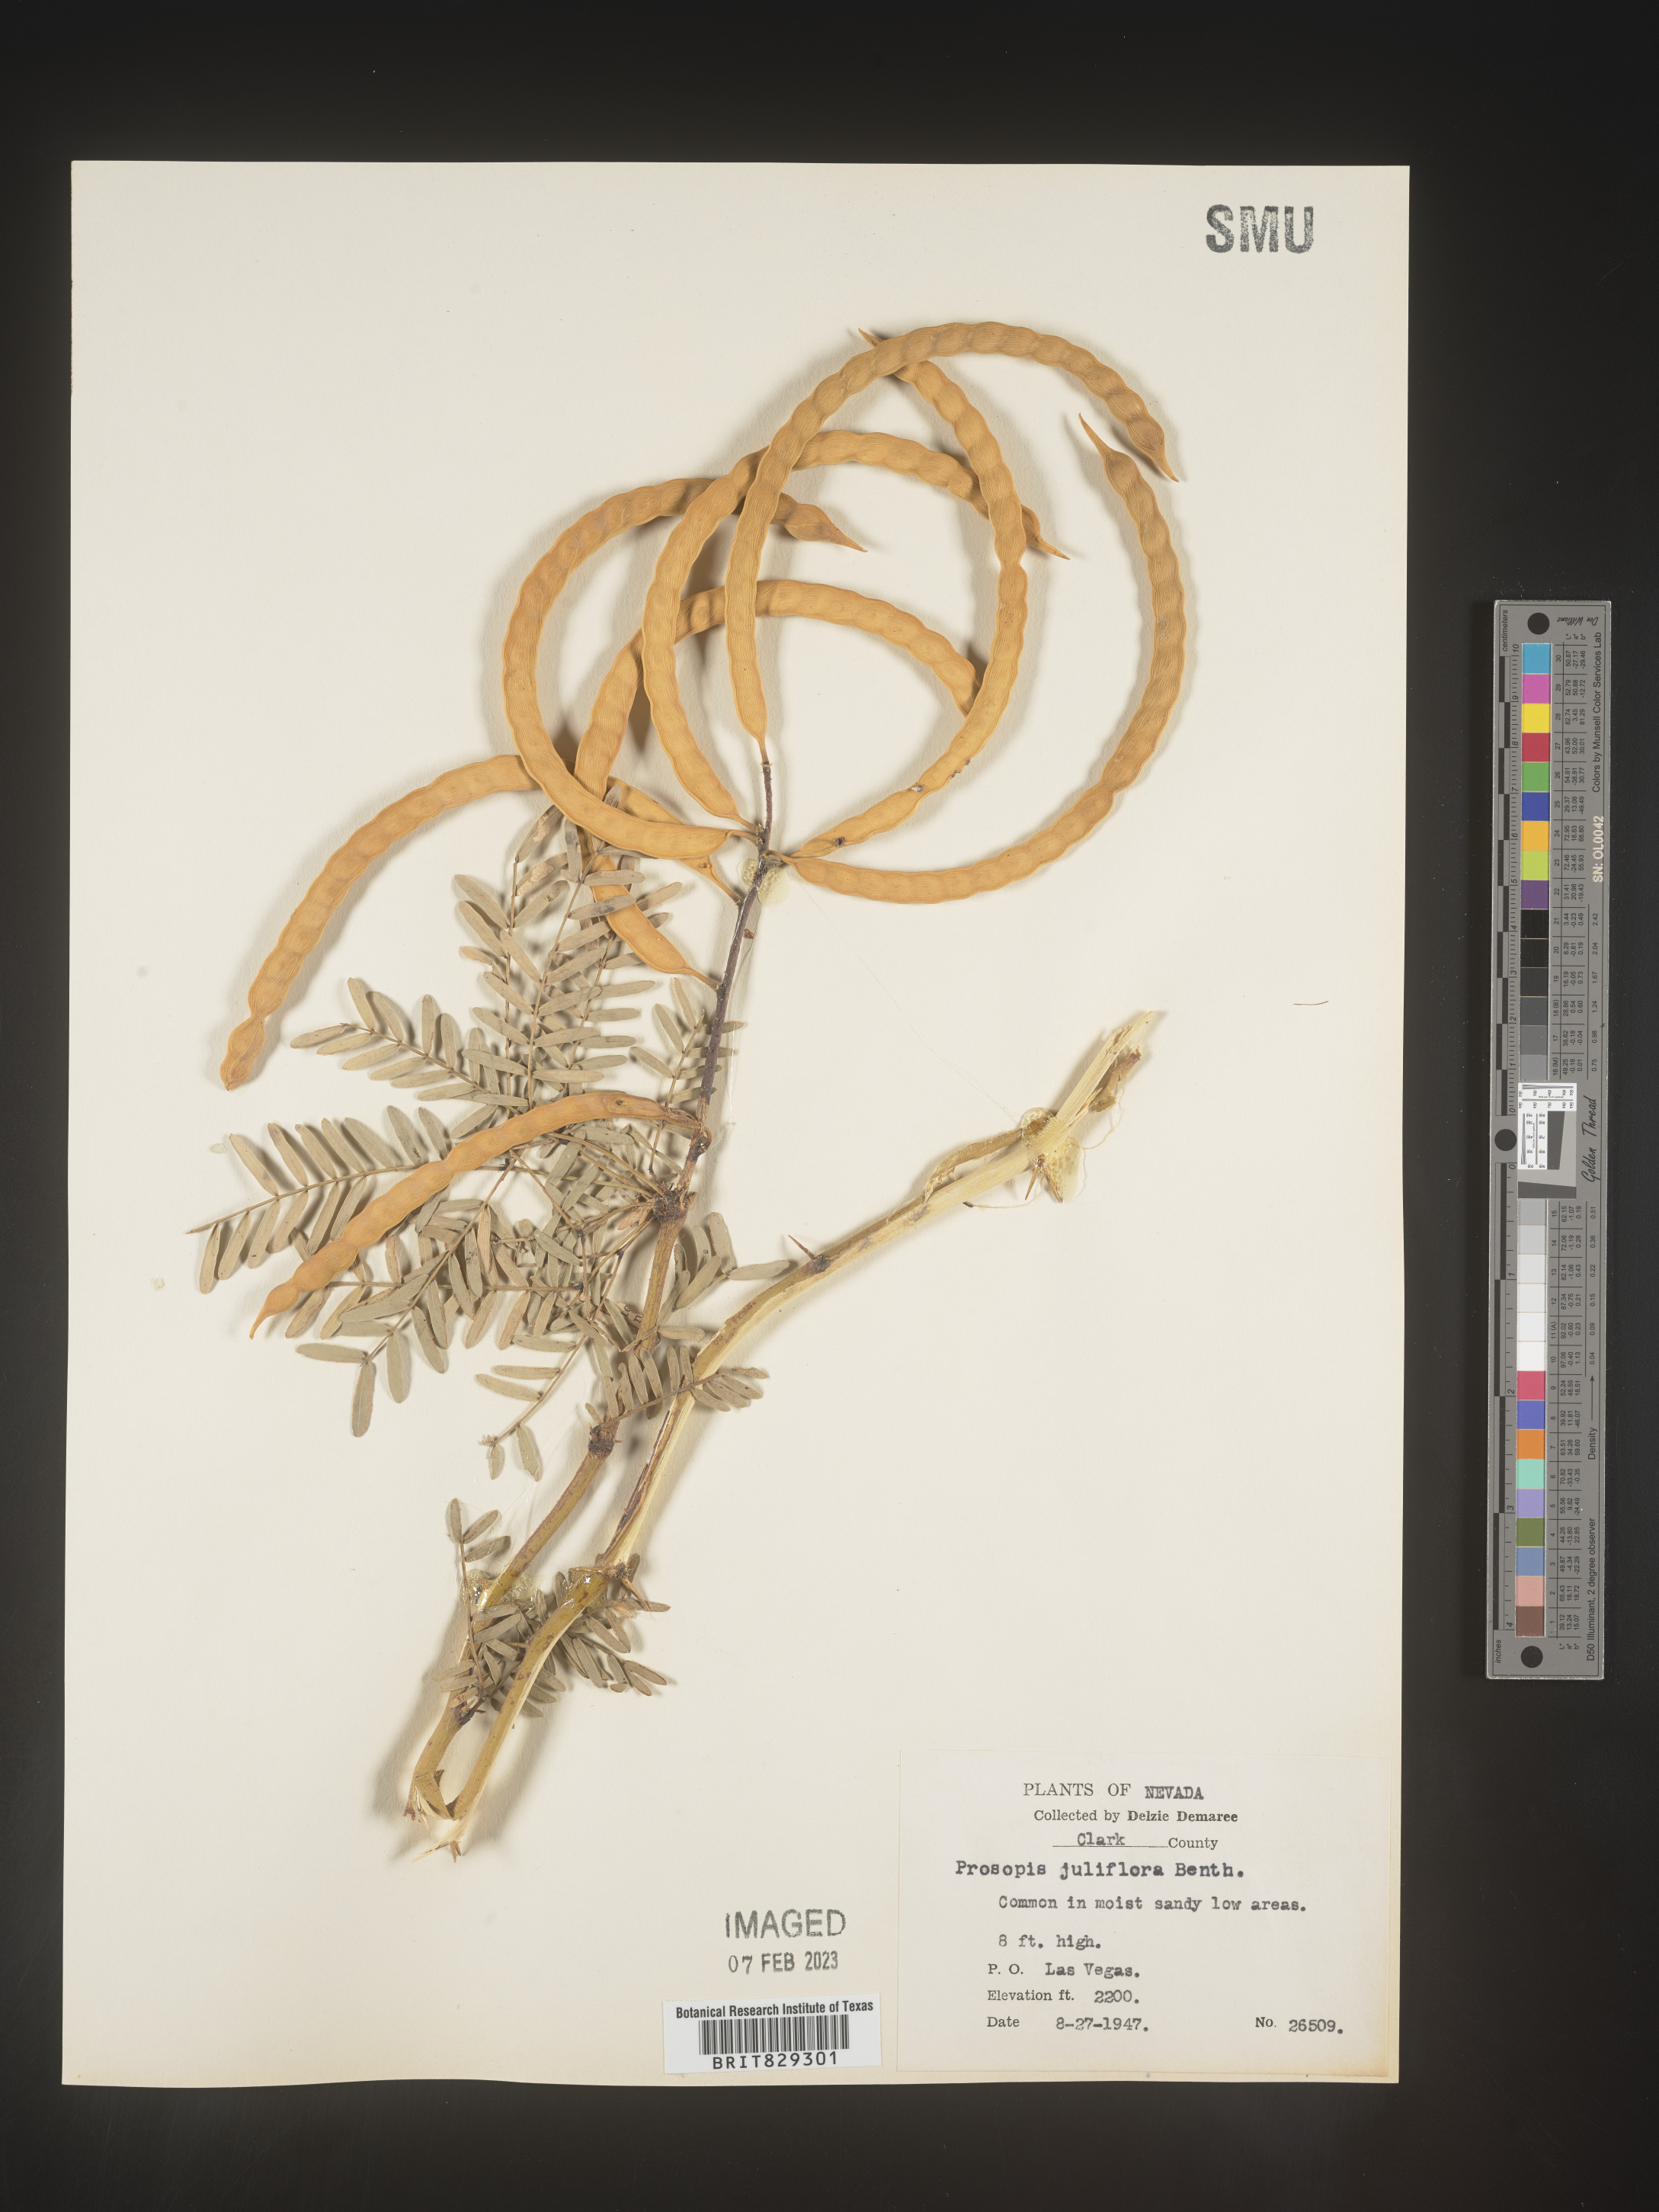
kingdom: Plantae
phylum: Tracheophyta
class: Magnoliopsida
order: Fabales
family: Fabaceae
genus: Prosopis
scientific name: Prosopis juliflora
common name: Mesquite
